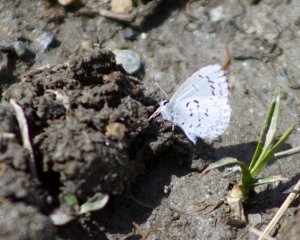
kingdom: Animalia
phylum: Arthropoda
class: Insecta
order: Lepidoptera
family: Lycaenidae
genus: Celastrina
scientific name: Celastrina lucia
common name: Northern Spring Azure
